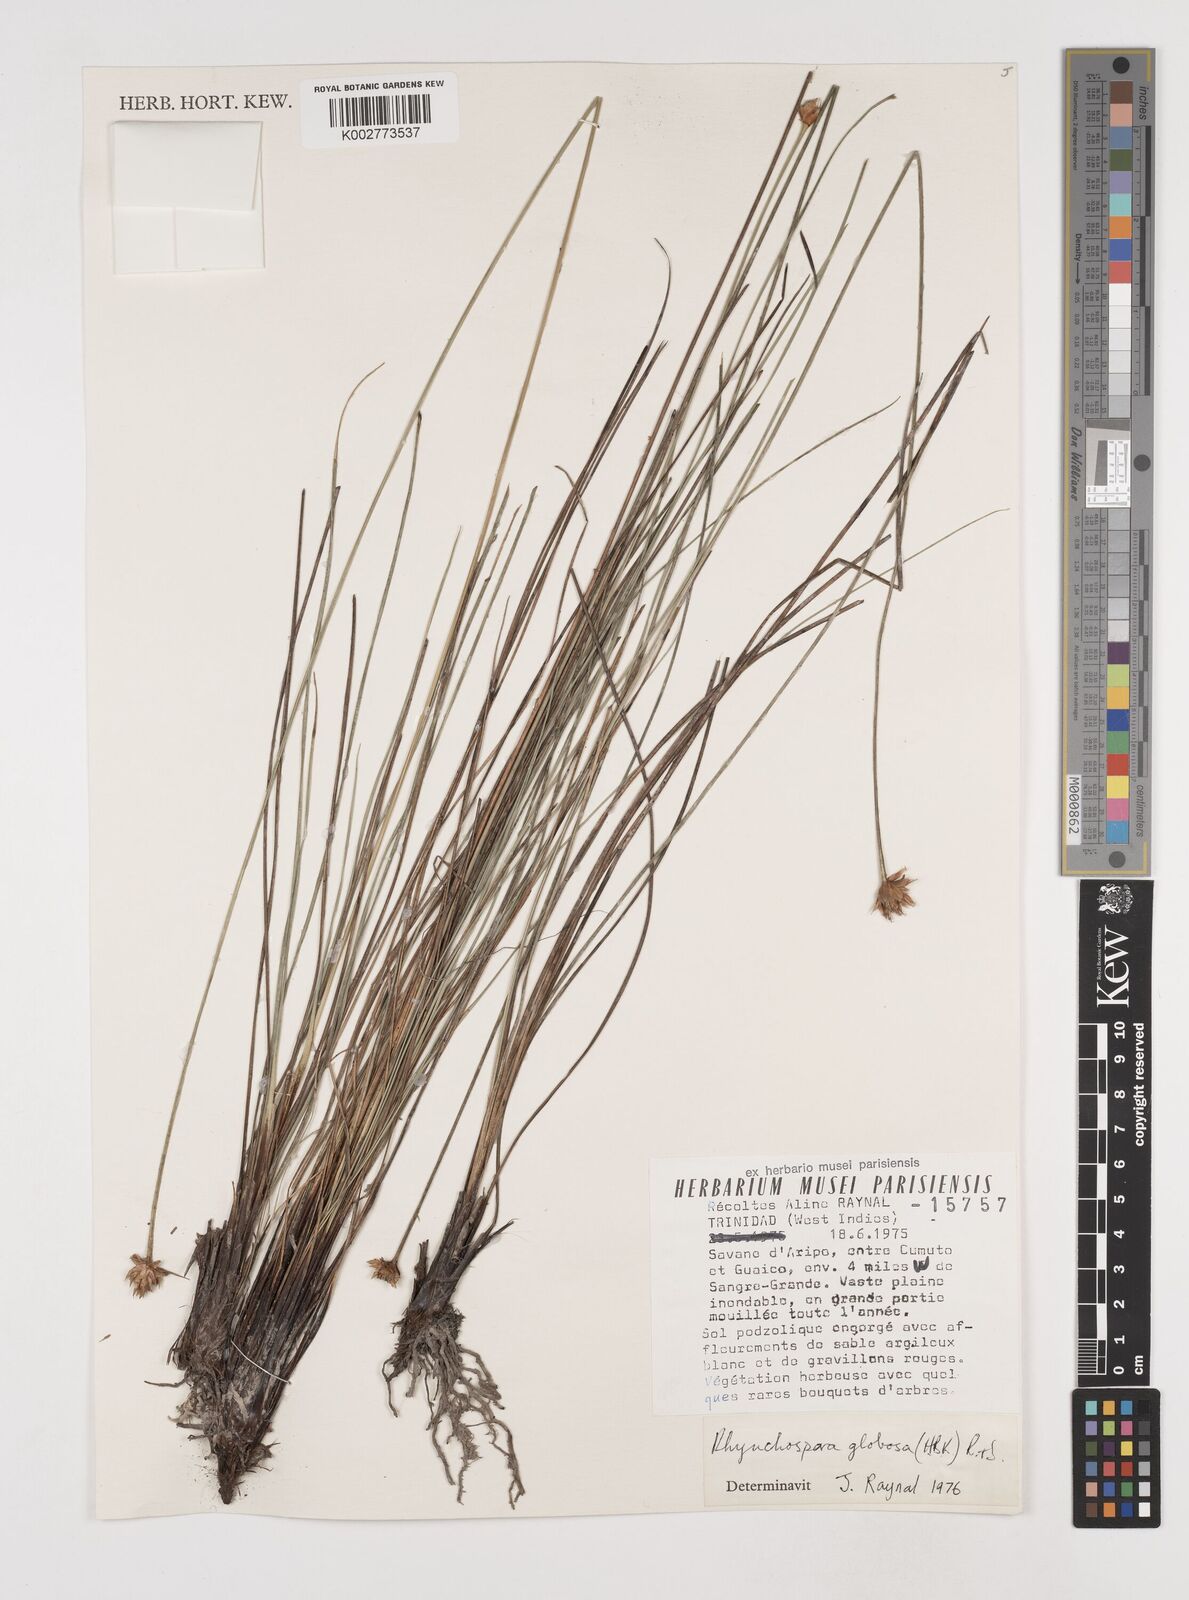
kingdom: Plantae
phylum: Tracheophyta
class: Liliopsida
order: Poales
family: Cyperaceae
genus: Rhynchospora
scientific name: Rhynchospora globosa
